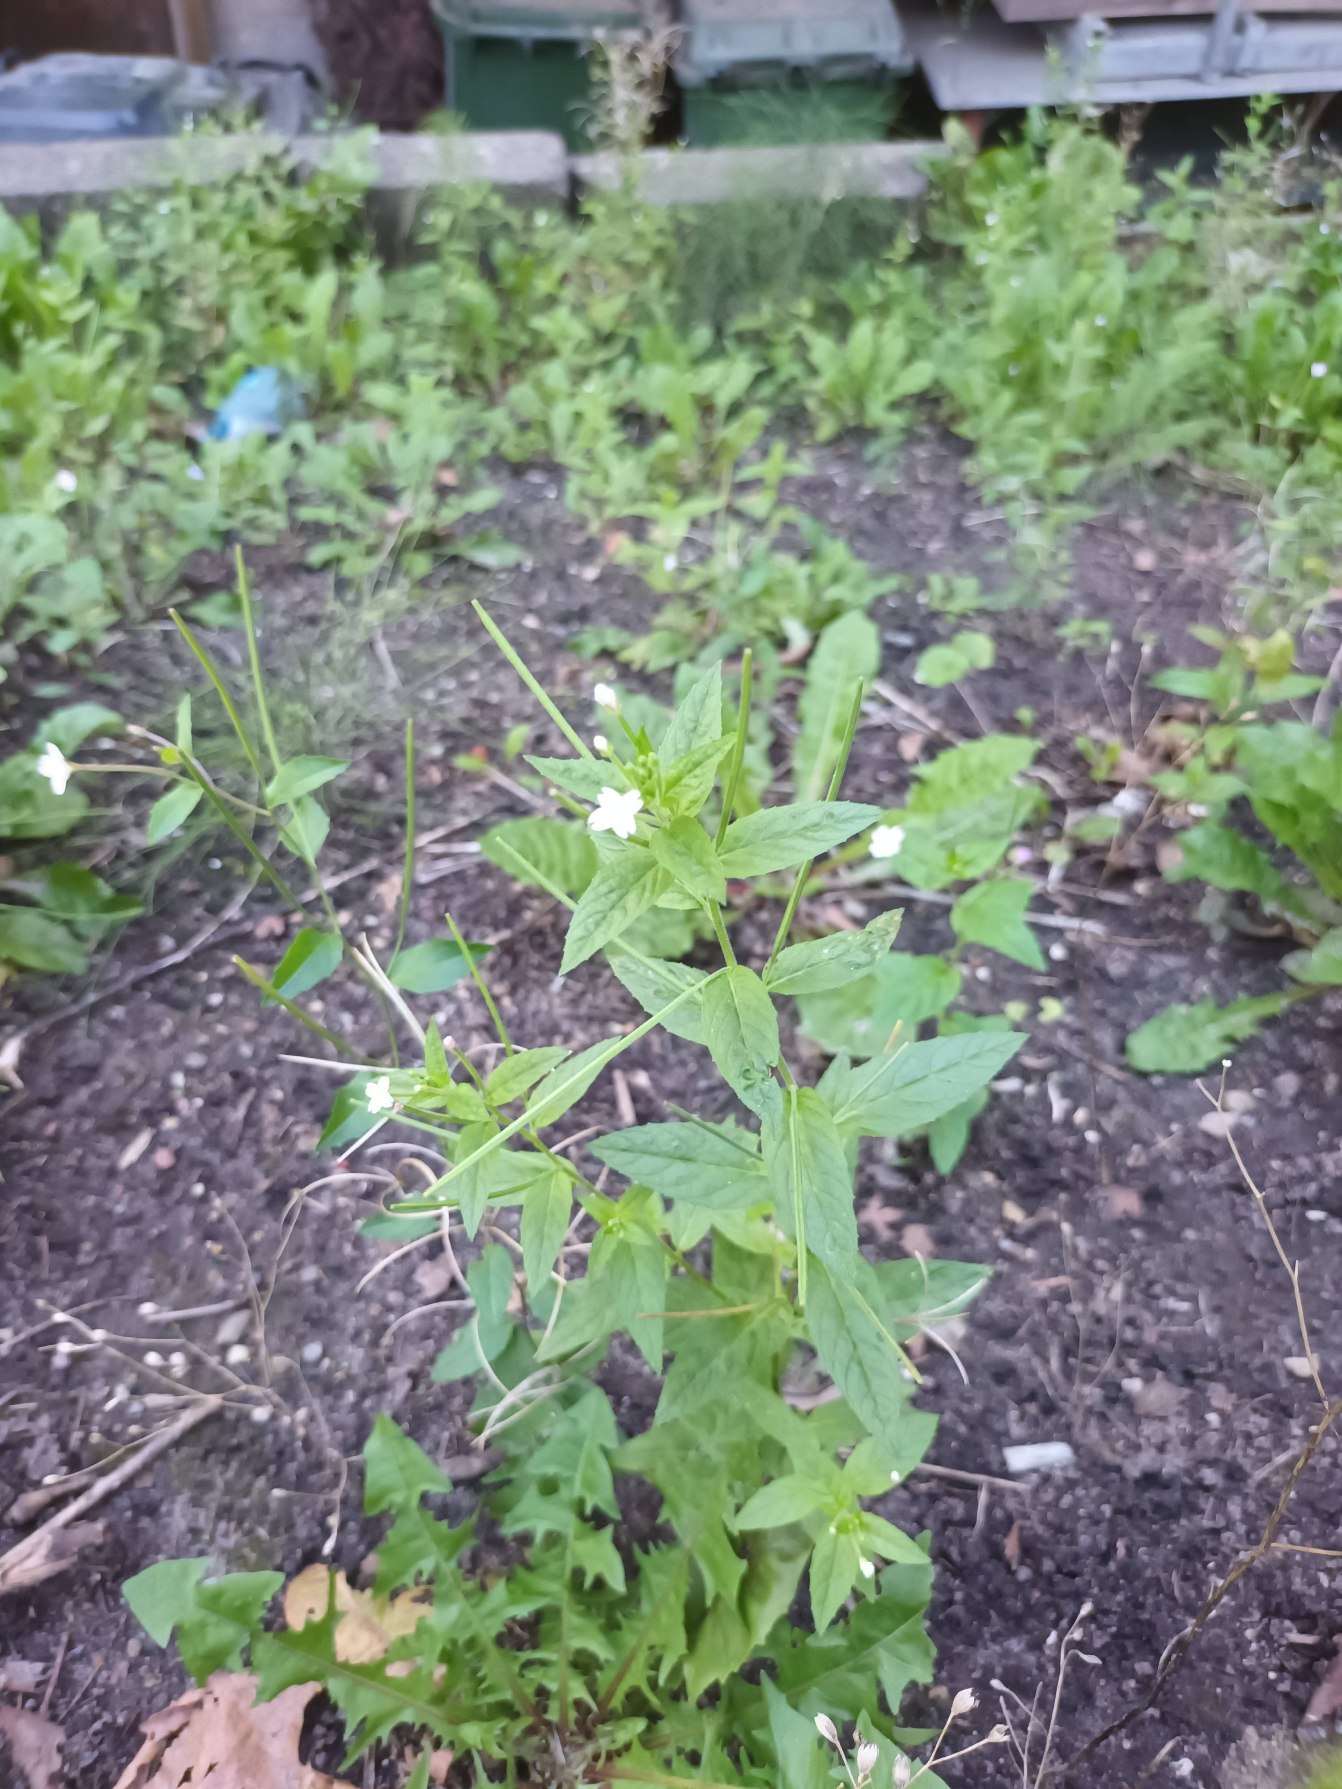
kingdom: Plantae
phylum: Tracheophyta
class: Magnoliopsida
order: Myrtales
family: Onagraceae
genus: Epilobium
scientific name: Epilobium ciliatum
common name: Hvid dueurt
